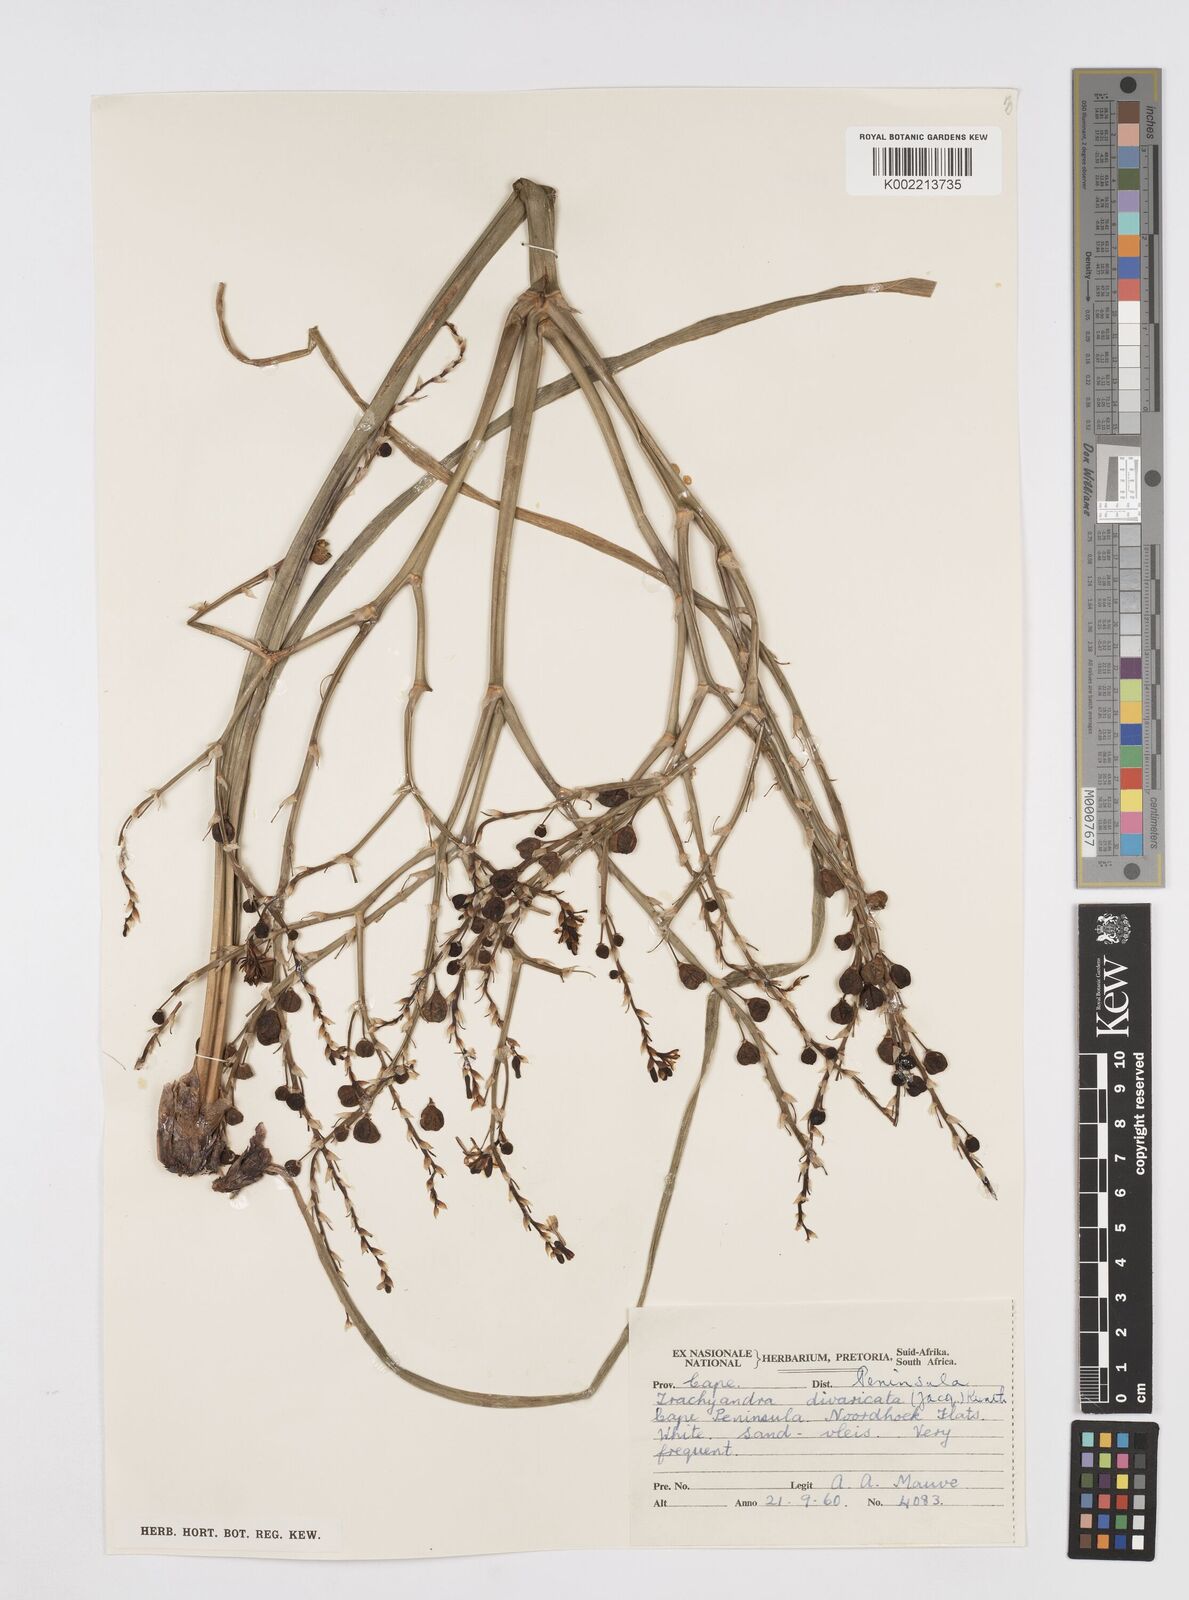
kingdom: Plantae
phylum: Tracheophyta
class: Liliopsida
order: Asparagales
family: Asphodelaceae
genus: Trachyandra
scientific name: Trachyandra divaricata
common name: Dune onionweed
